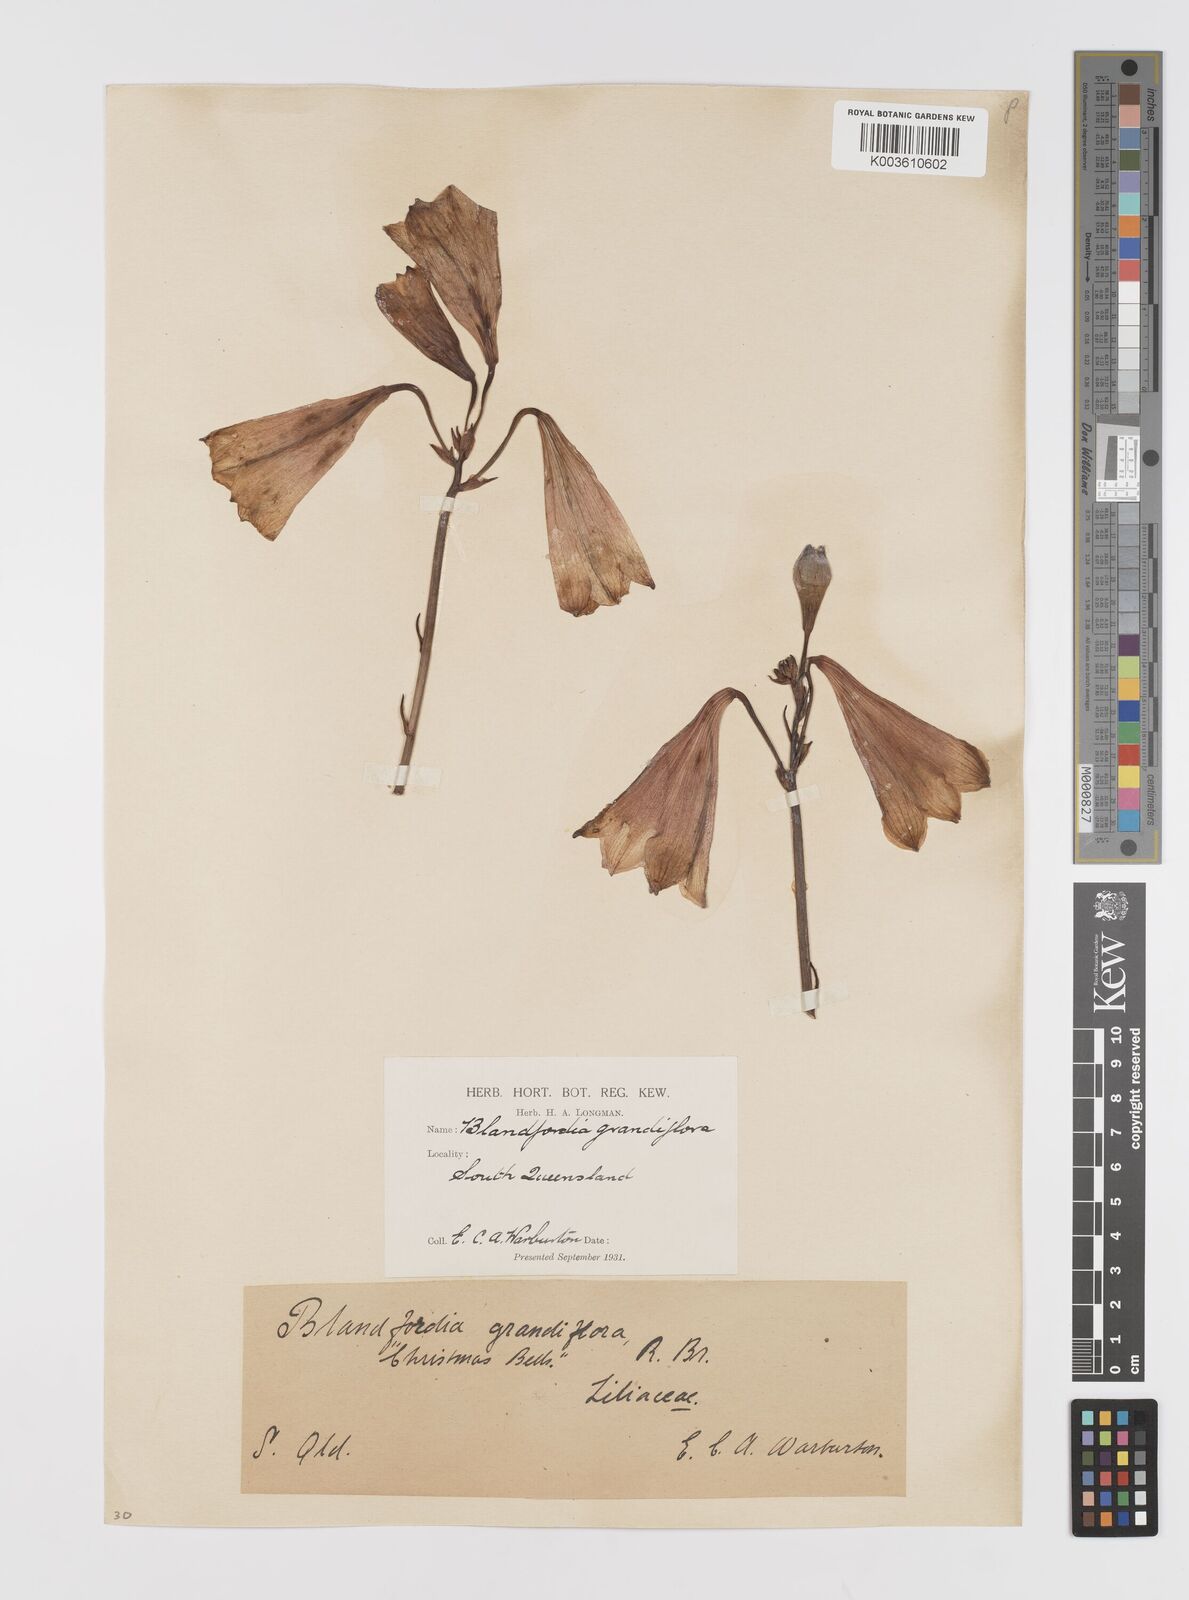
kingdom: Plantae
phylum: Tracheophyta
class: Liliopsida
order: Asparagales
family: Blandfordiaceae
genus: Blandfordia
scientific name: Blandfordia grandiflora
